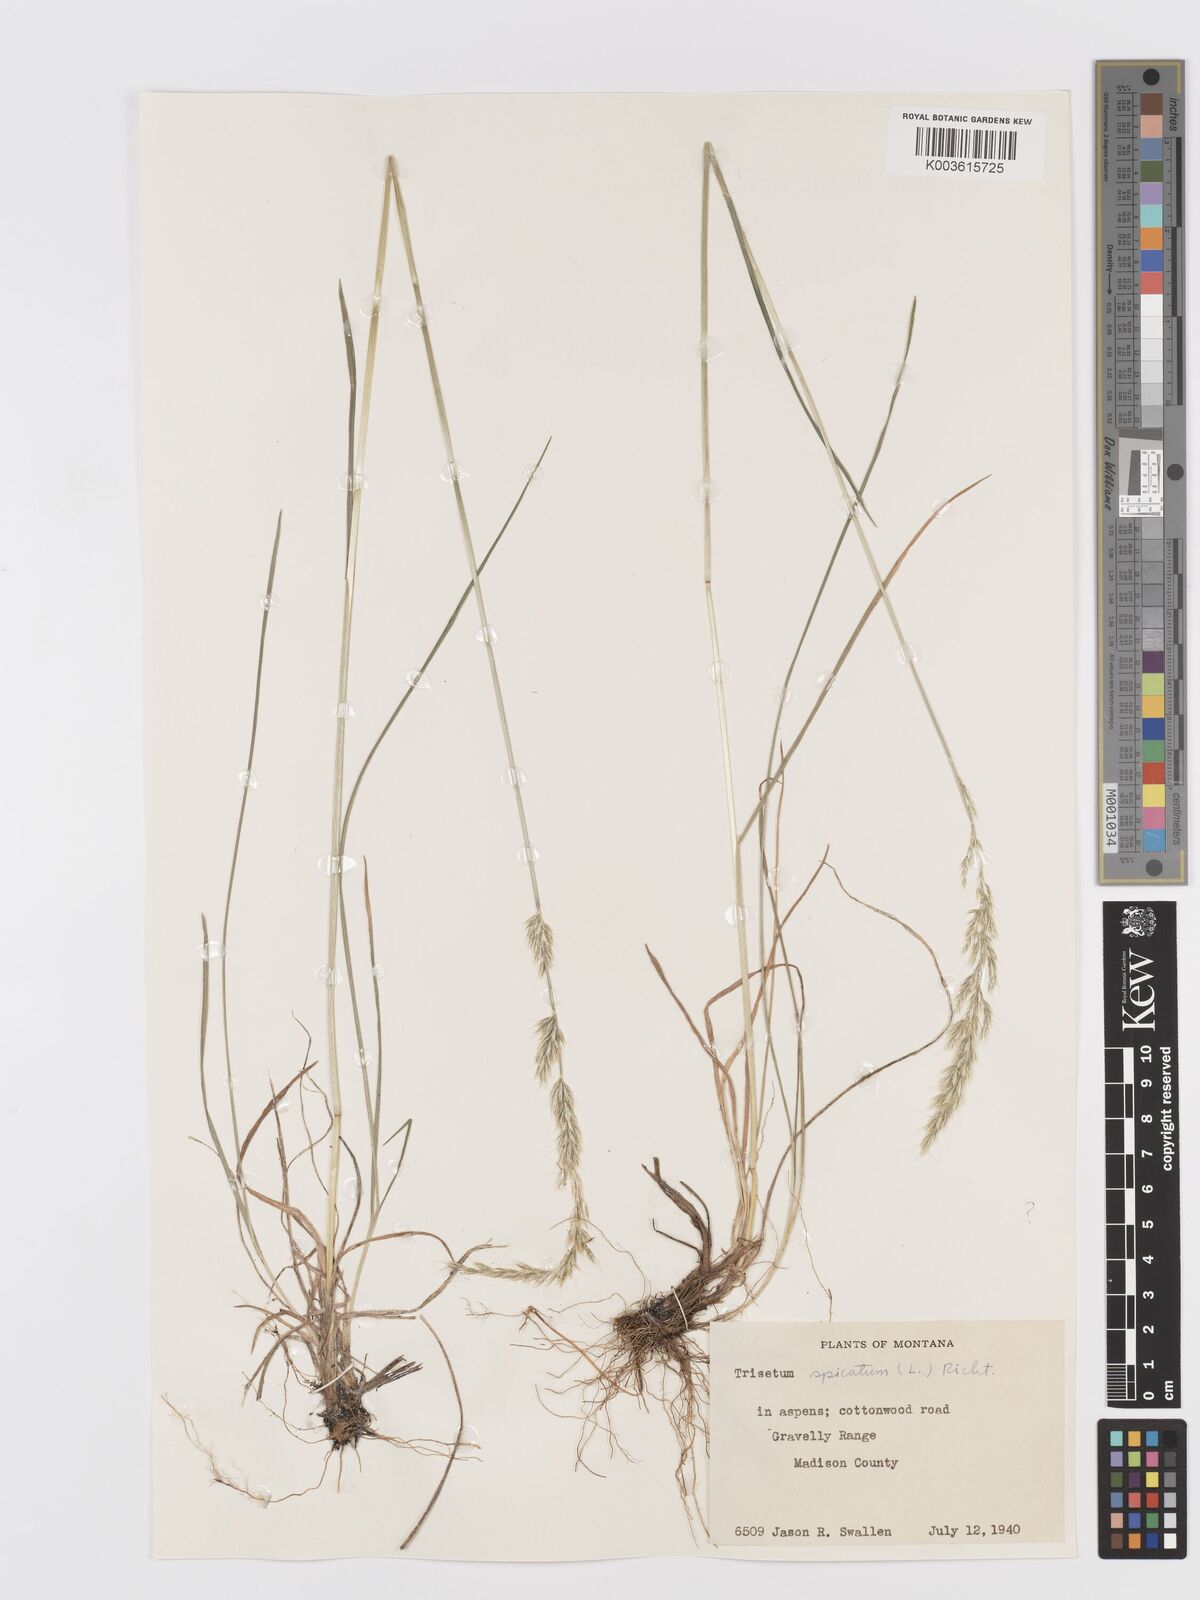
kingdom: Plantae
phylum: Tracheophyta
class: Liliopsida
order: Poales
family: Poaceae
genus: Koeleria
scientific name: Koeleria spicata
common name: Mountain trisetum
